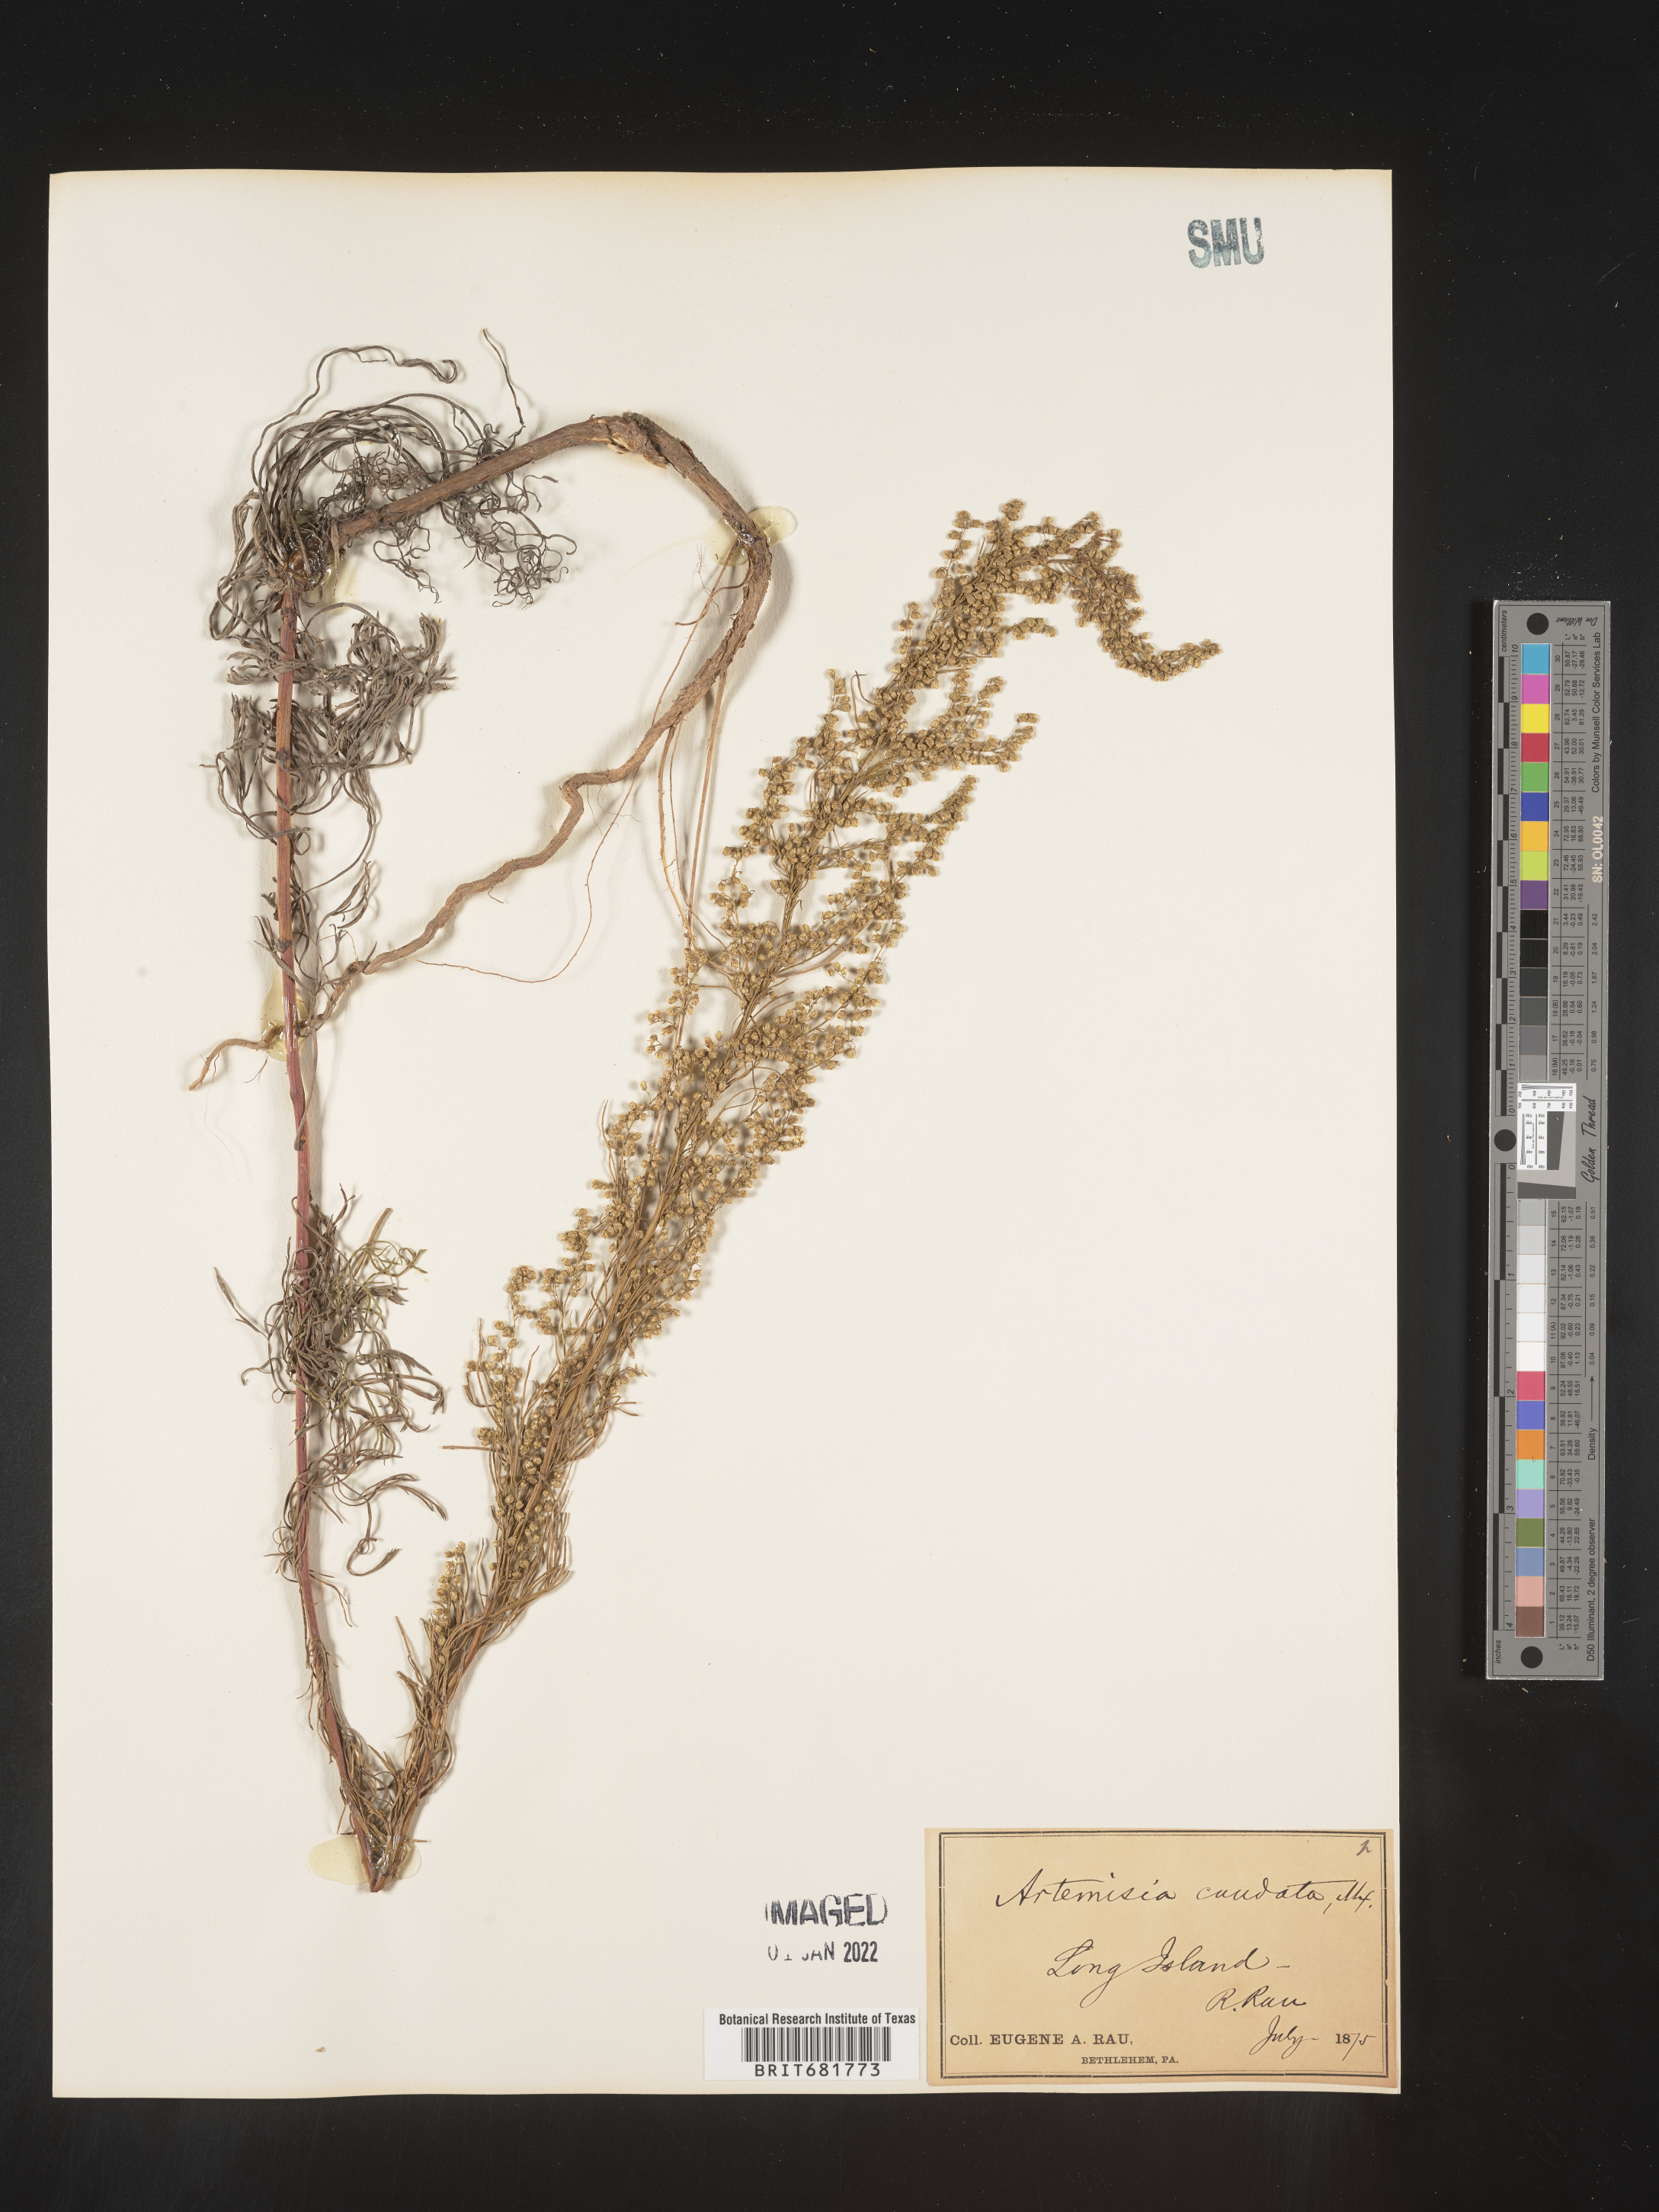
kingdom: Plantae
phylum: Tracheophyta
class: Magnoliopsida
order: Asterales
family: Asteraceae
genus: Artemisia
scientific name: Artemisia campestris
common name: Field wormwood
